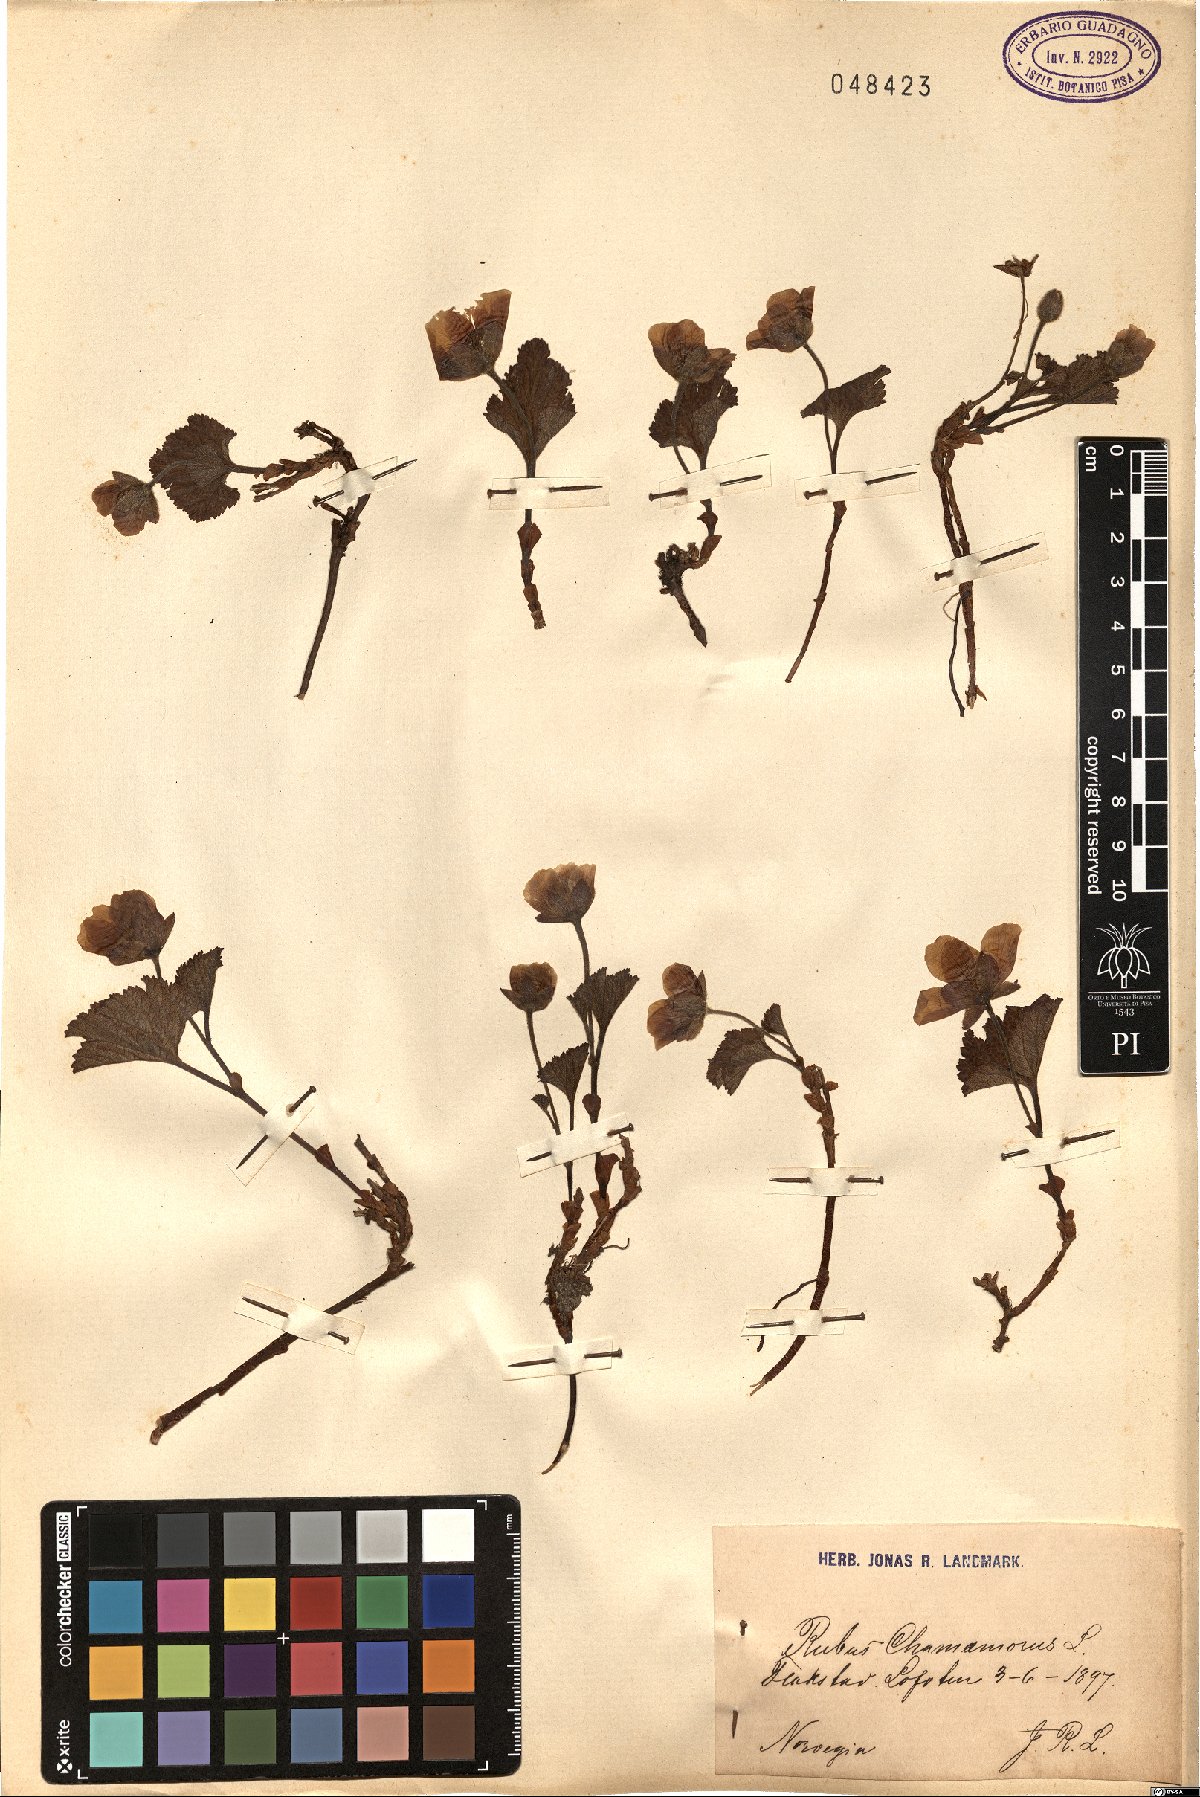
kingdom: Plantae
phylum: Tracheophyta
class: Magnoliopsida
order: Rosales
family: Rosaceae
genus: Rubus
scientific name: Rubus chamaemorus
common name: Cloudberry
